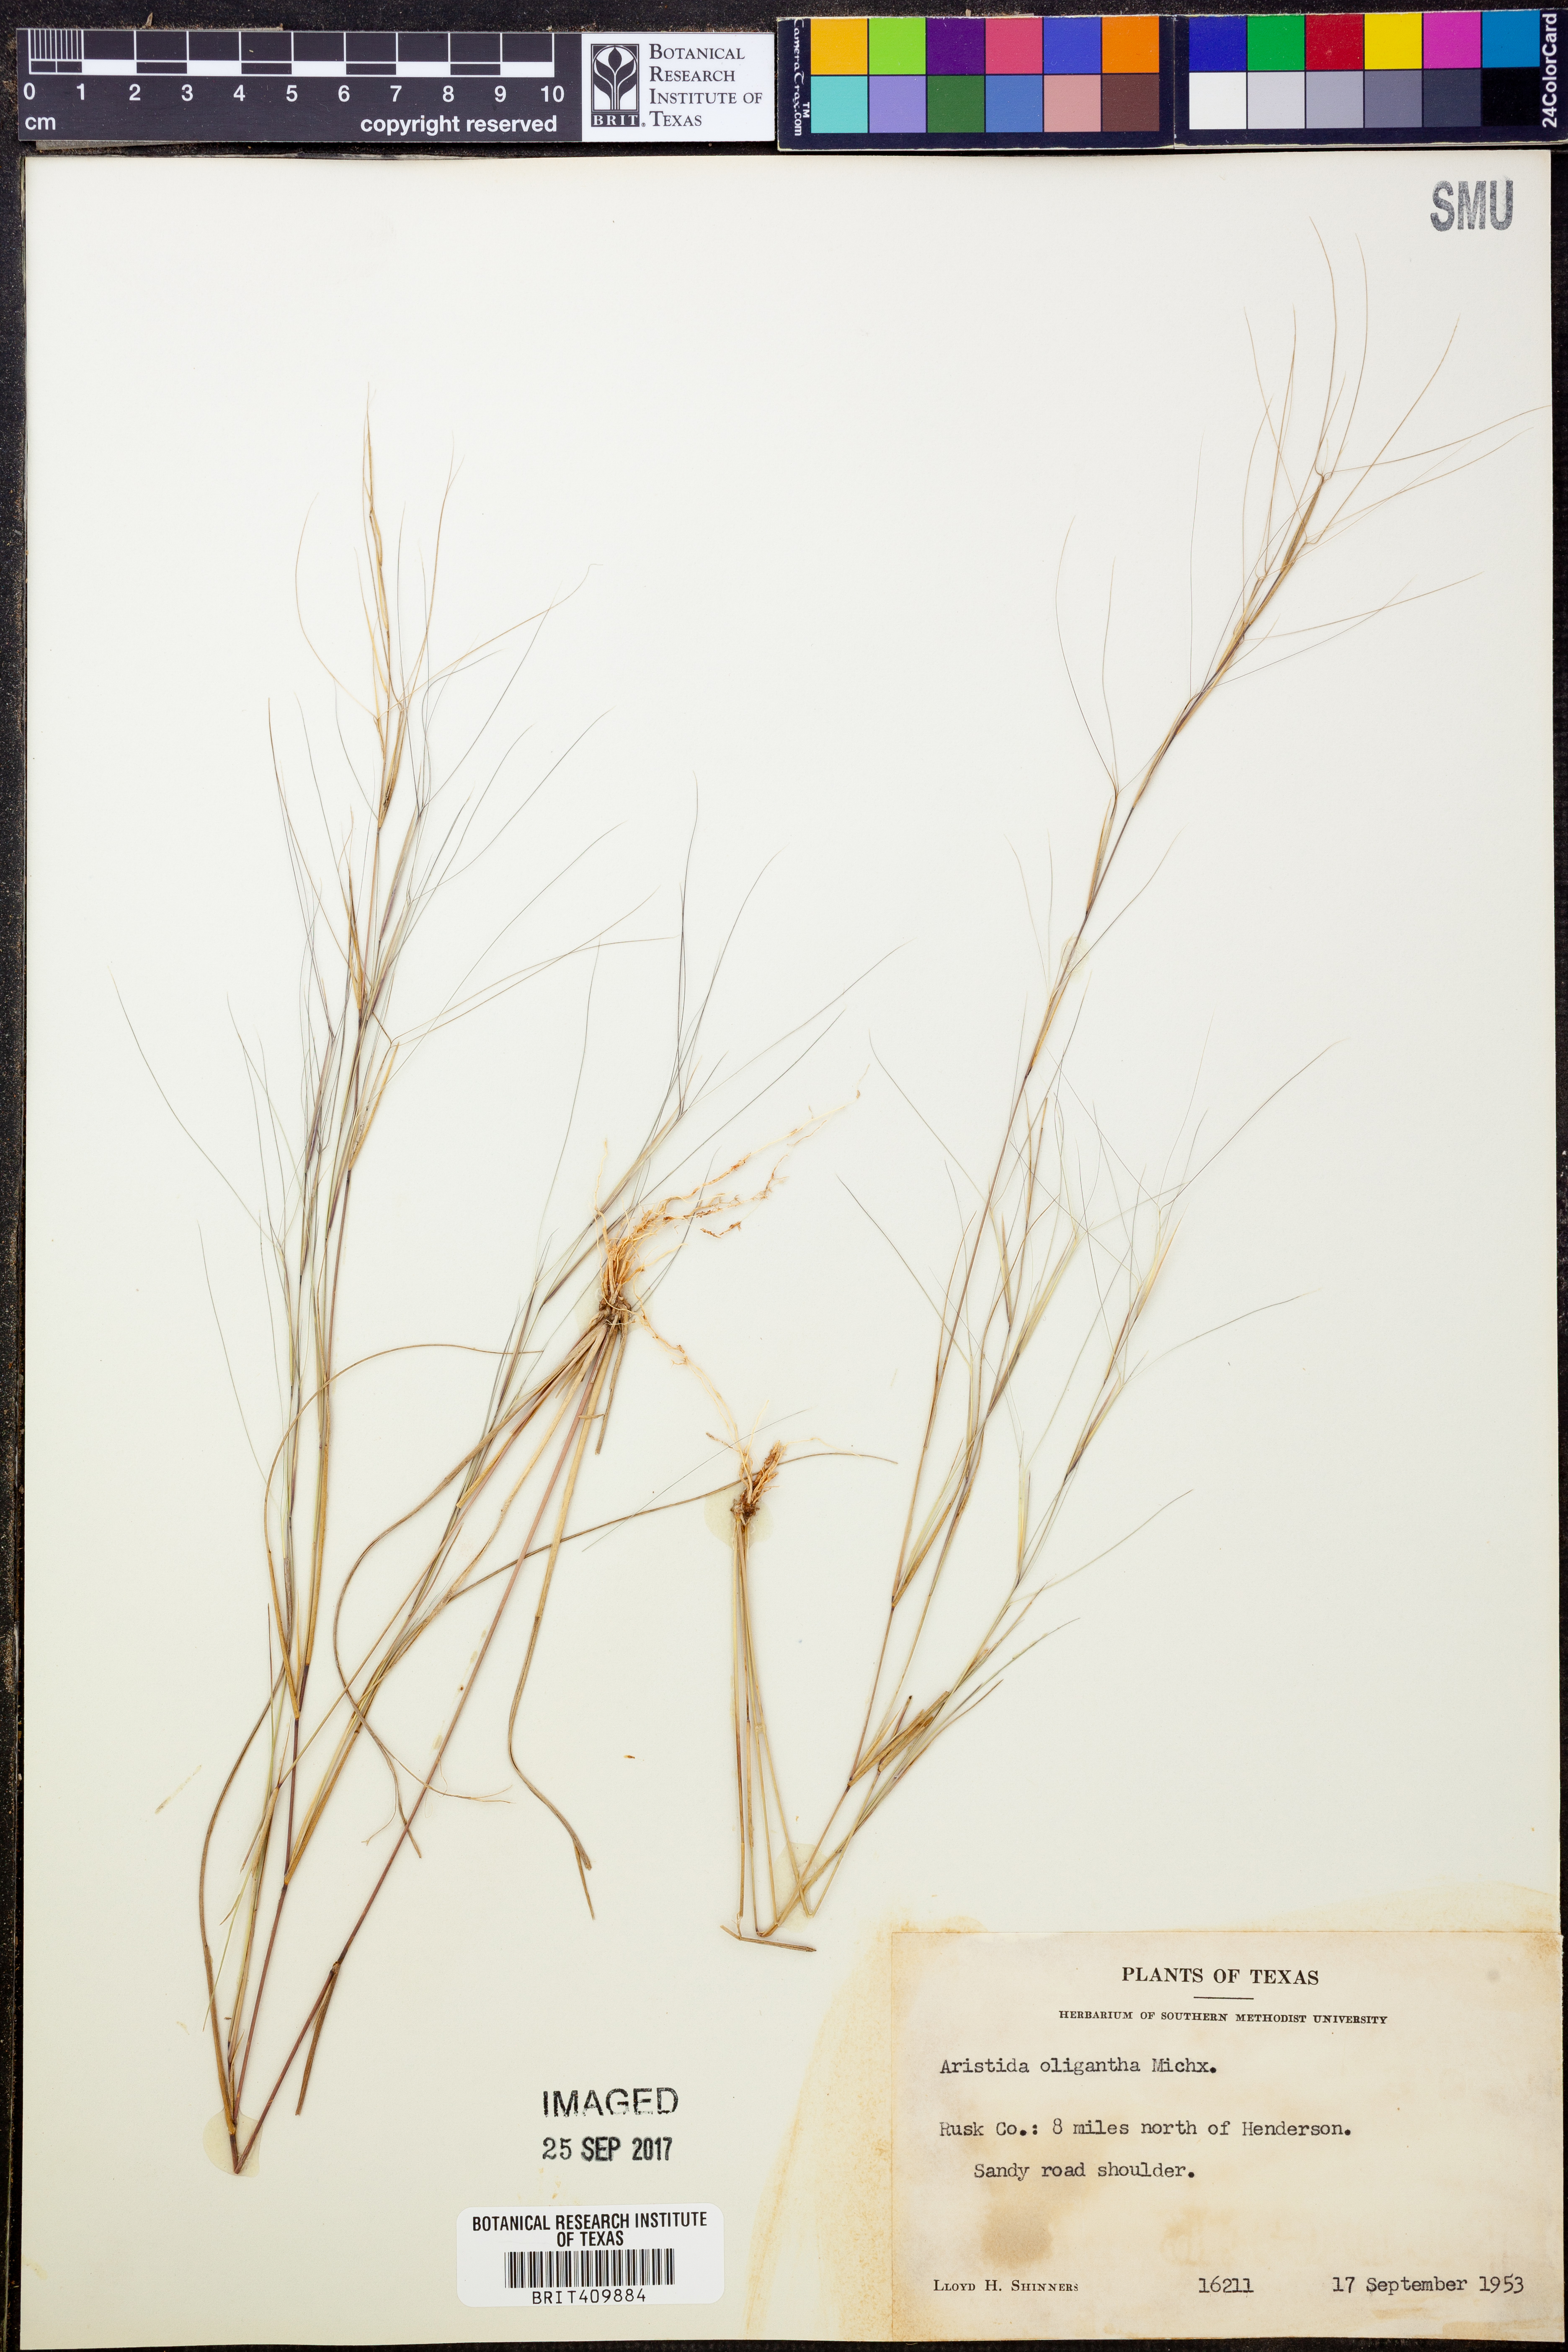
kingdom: Plantae
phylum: Tracheophyta
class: Liliopsida
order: Poales
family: Poaceae
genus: Aristida
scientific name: Aristida oligantha
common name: Few-flowered aristida
